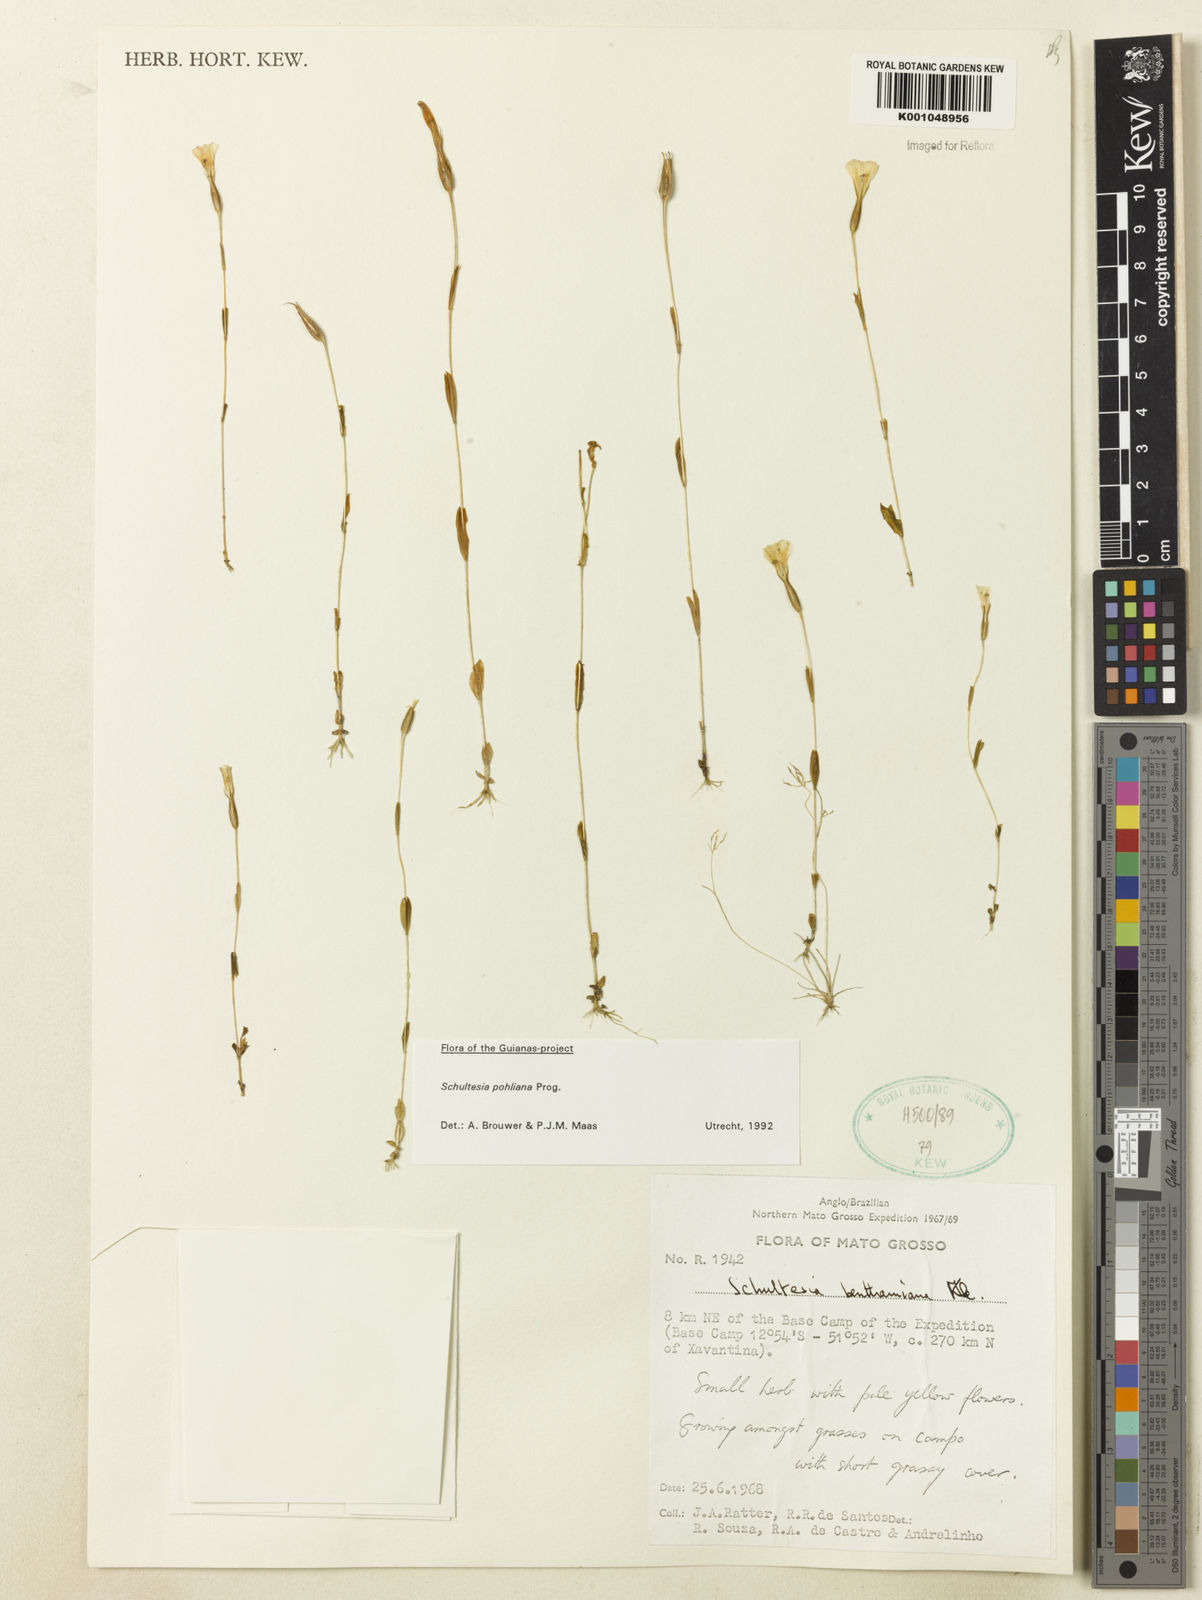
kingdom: Plantae
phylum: Tracheophyta
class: Magnoliopsida
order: Gentianales
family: Gentianaceae
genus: Schultesia
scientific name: Schultesia pohliana
